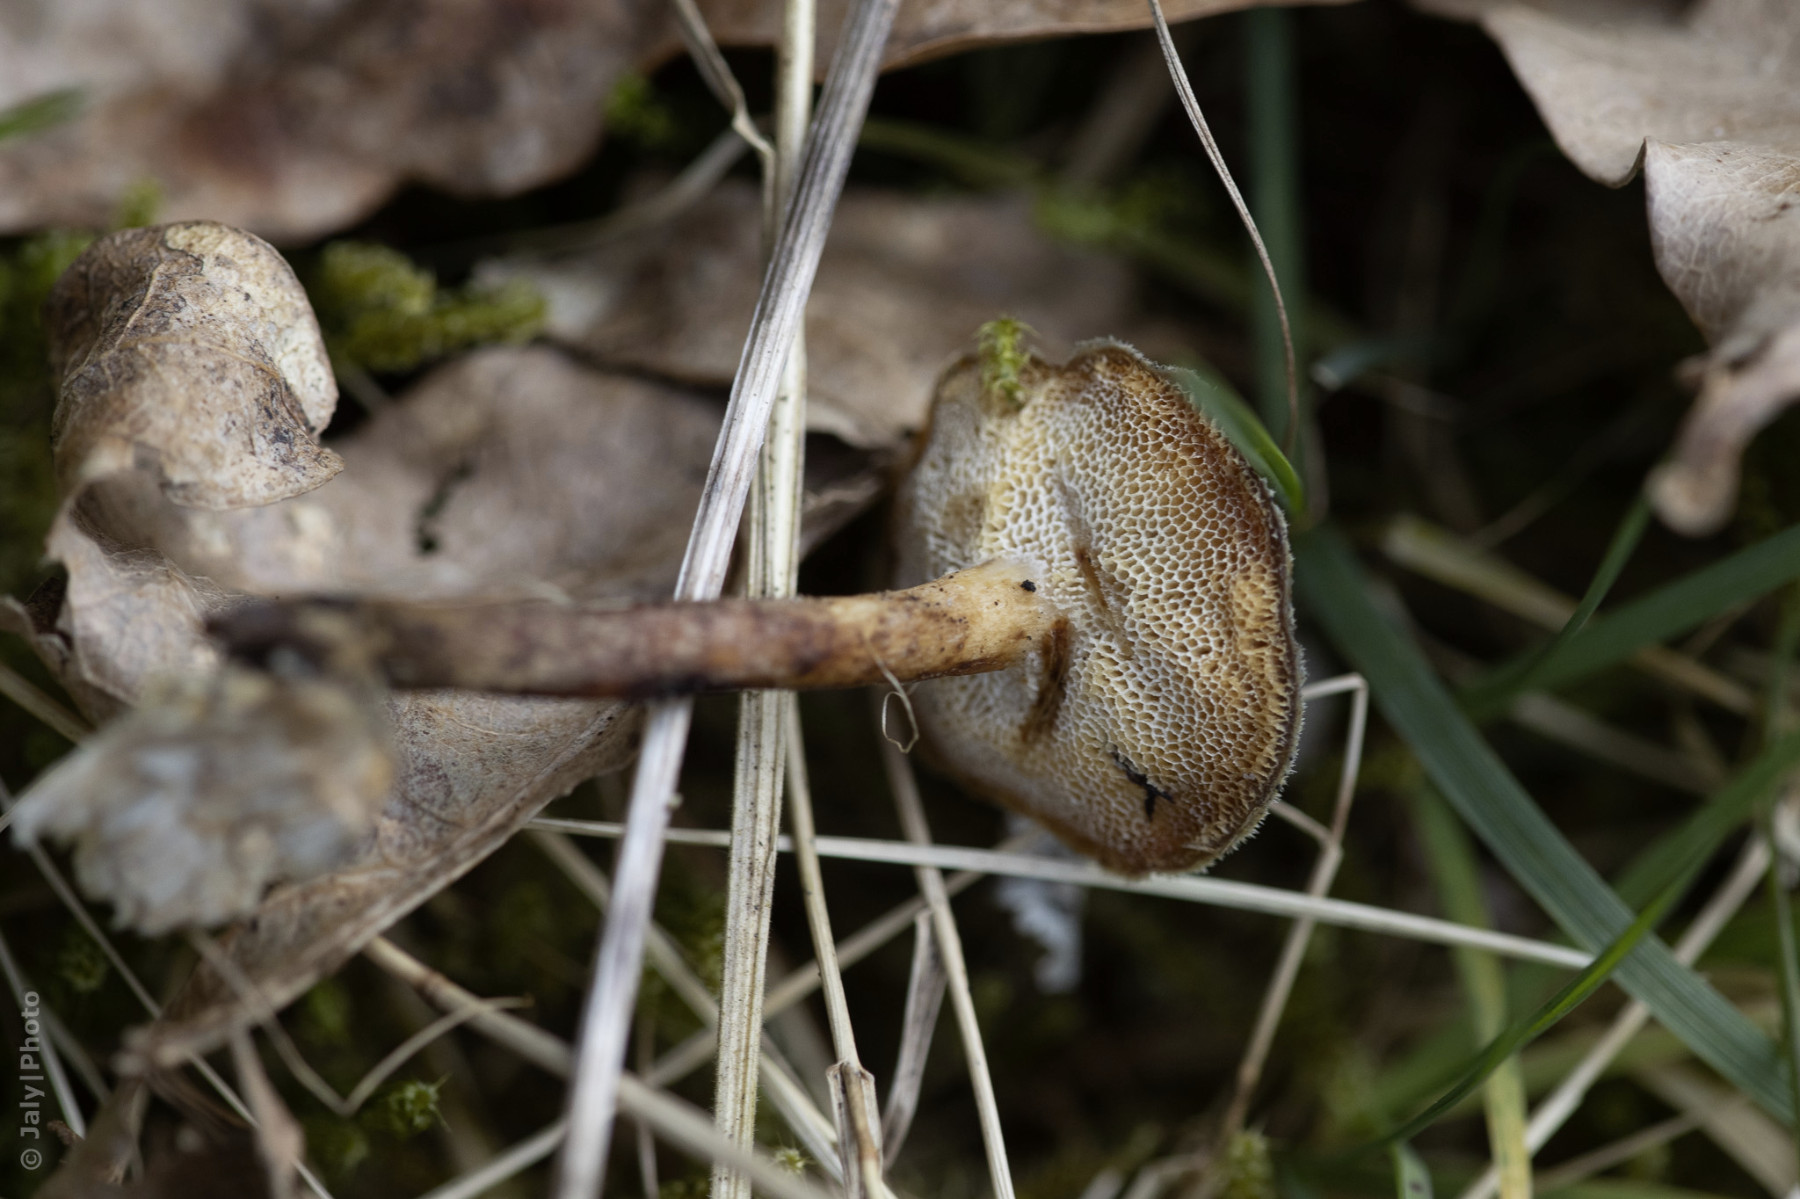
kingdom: Fungi
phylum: Basidiomycota
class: Agaricomycetes
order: Polyporales
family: Polyporaceae
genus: Lentinus
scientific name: Lentinus brumalis
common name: vinter-stilkporesvamp
